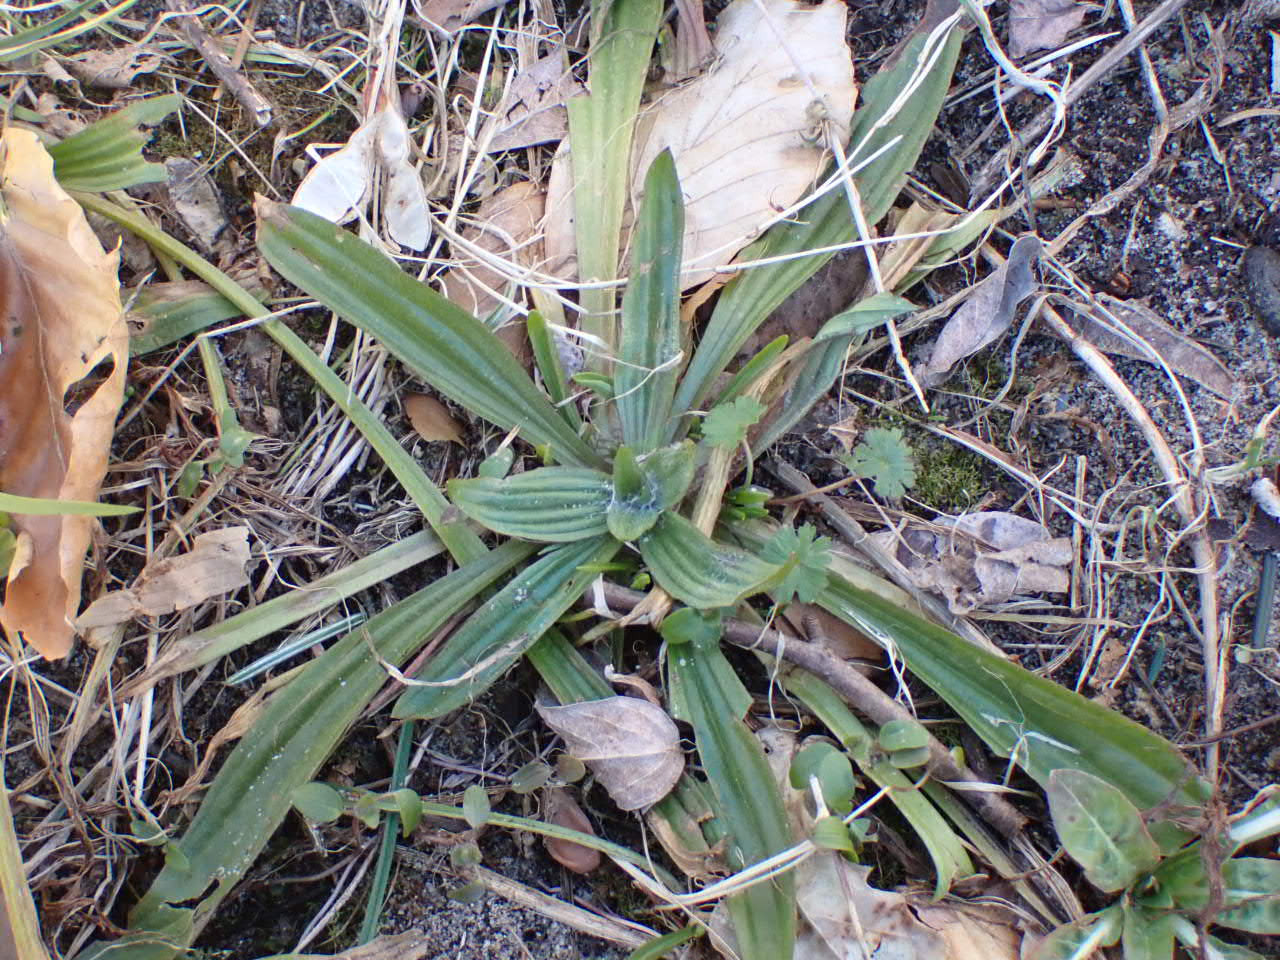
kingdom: Plantae
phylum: Tracheophyta
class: Magnoliopsida
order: Lamiales
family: Plantaginaceae
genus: Plantago
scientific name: Plantago lanceolata
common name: Lancet-vejbred
